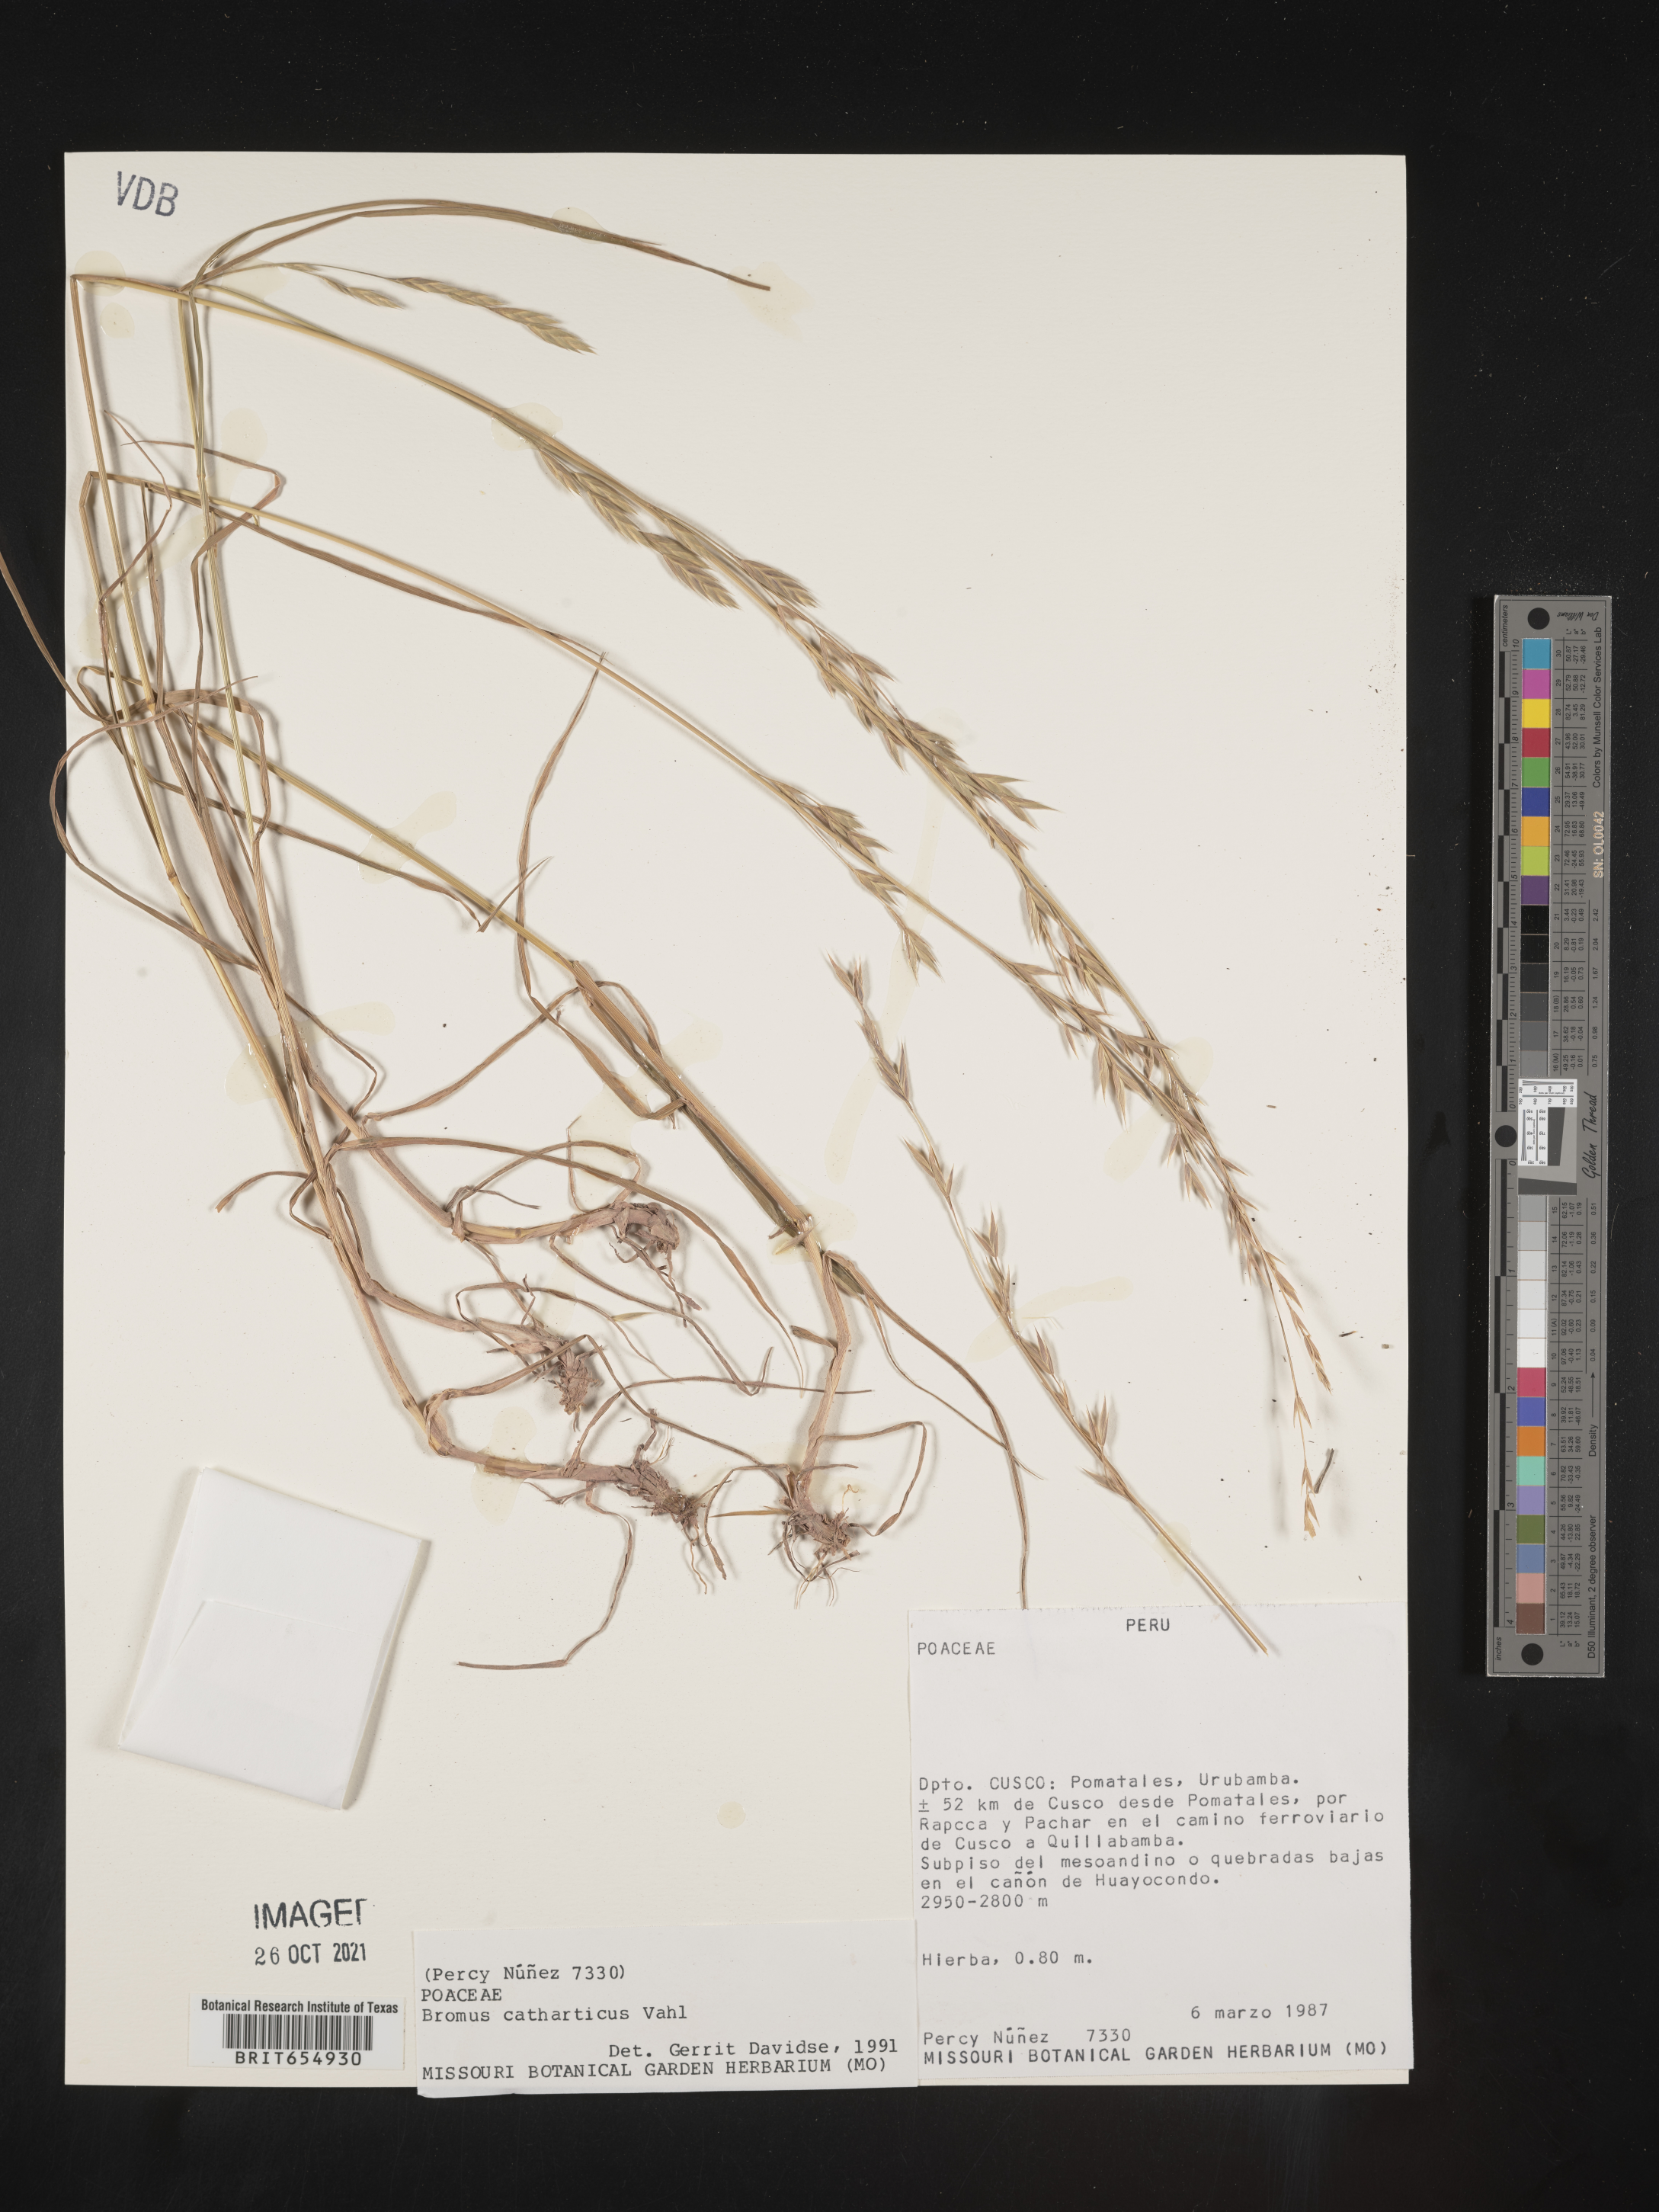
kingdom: Plantae
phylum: Tracheophyta
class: Liliopsida
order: Poales
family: Poaceae
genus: Bromus
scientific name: Bromus
